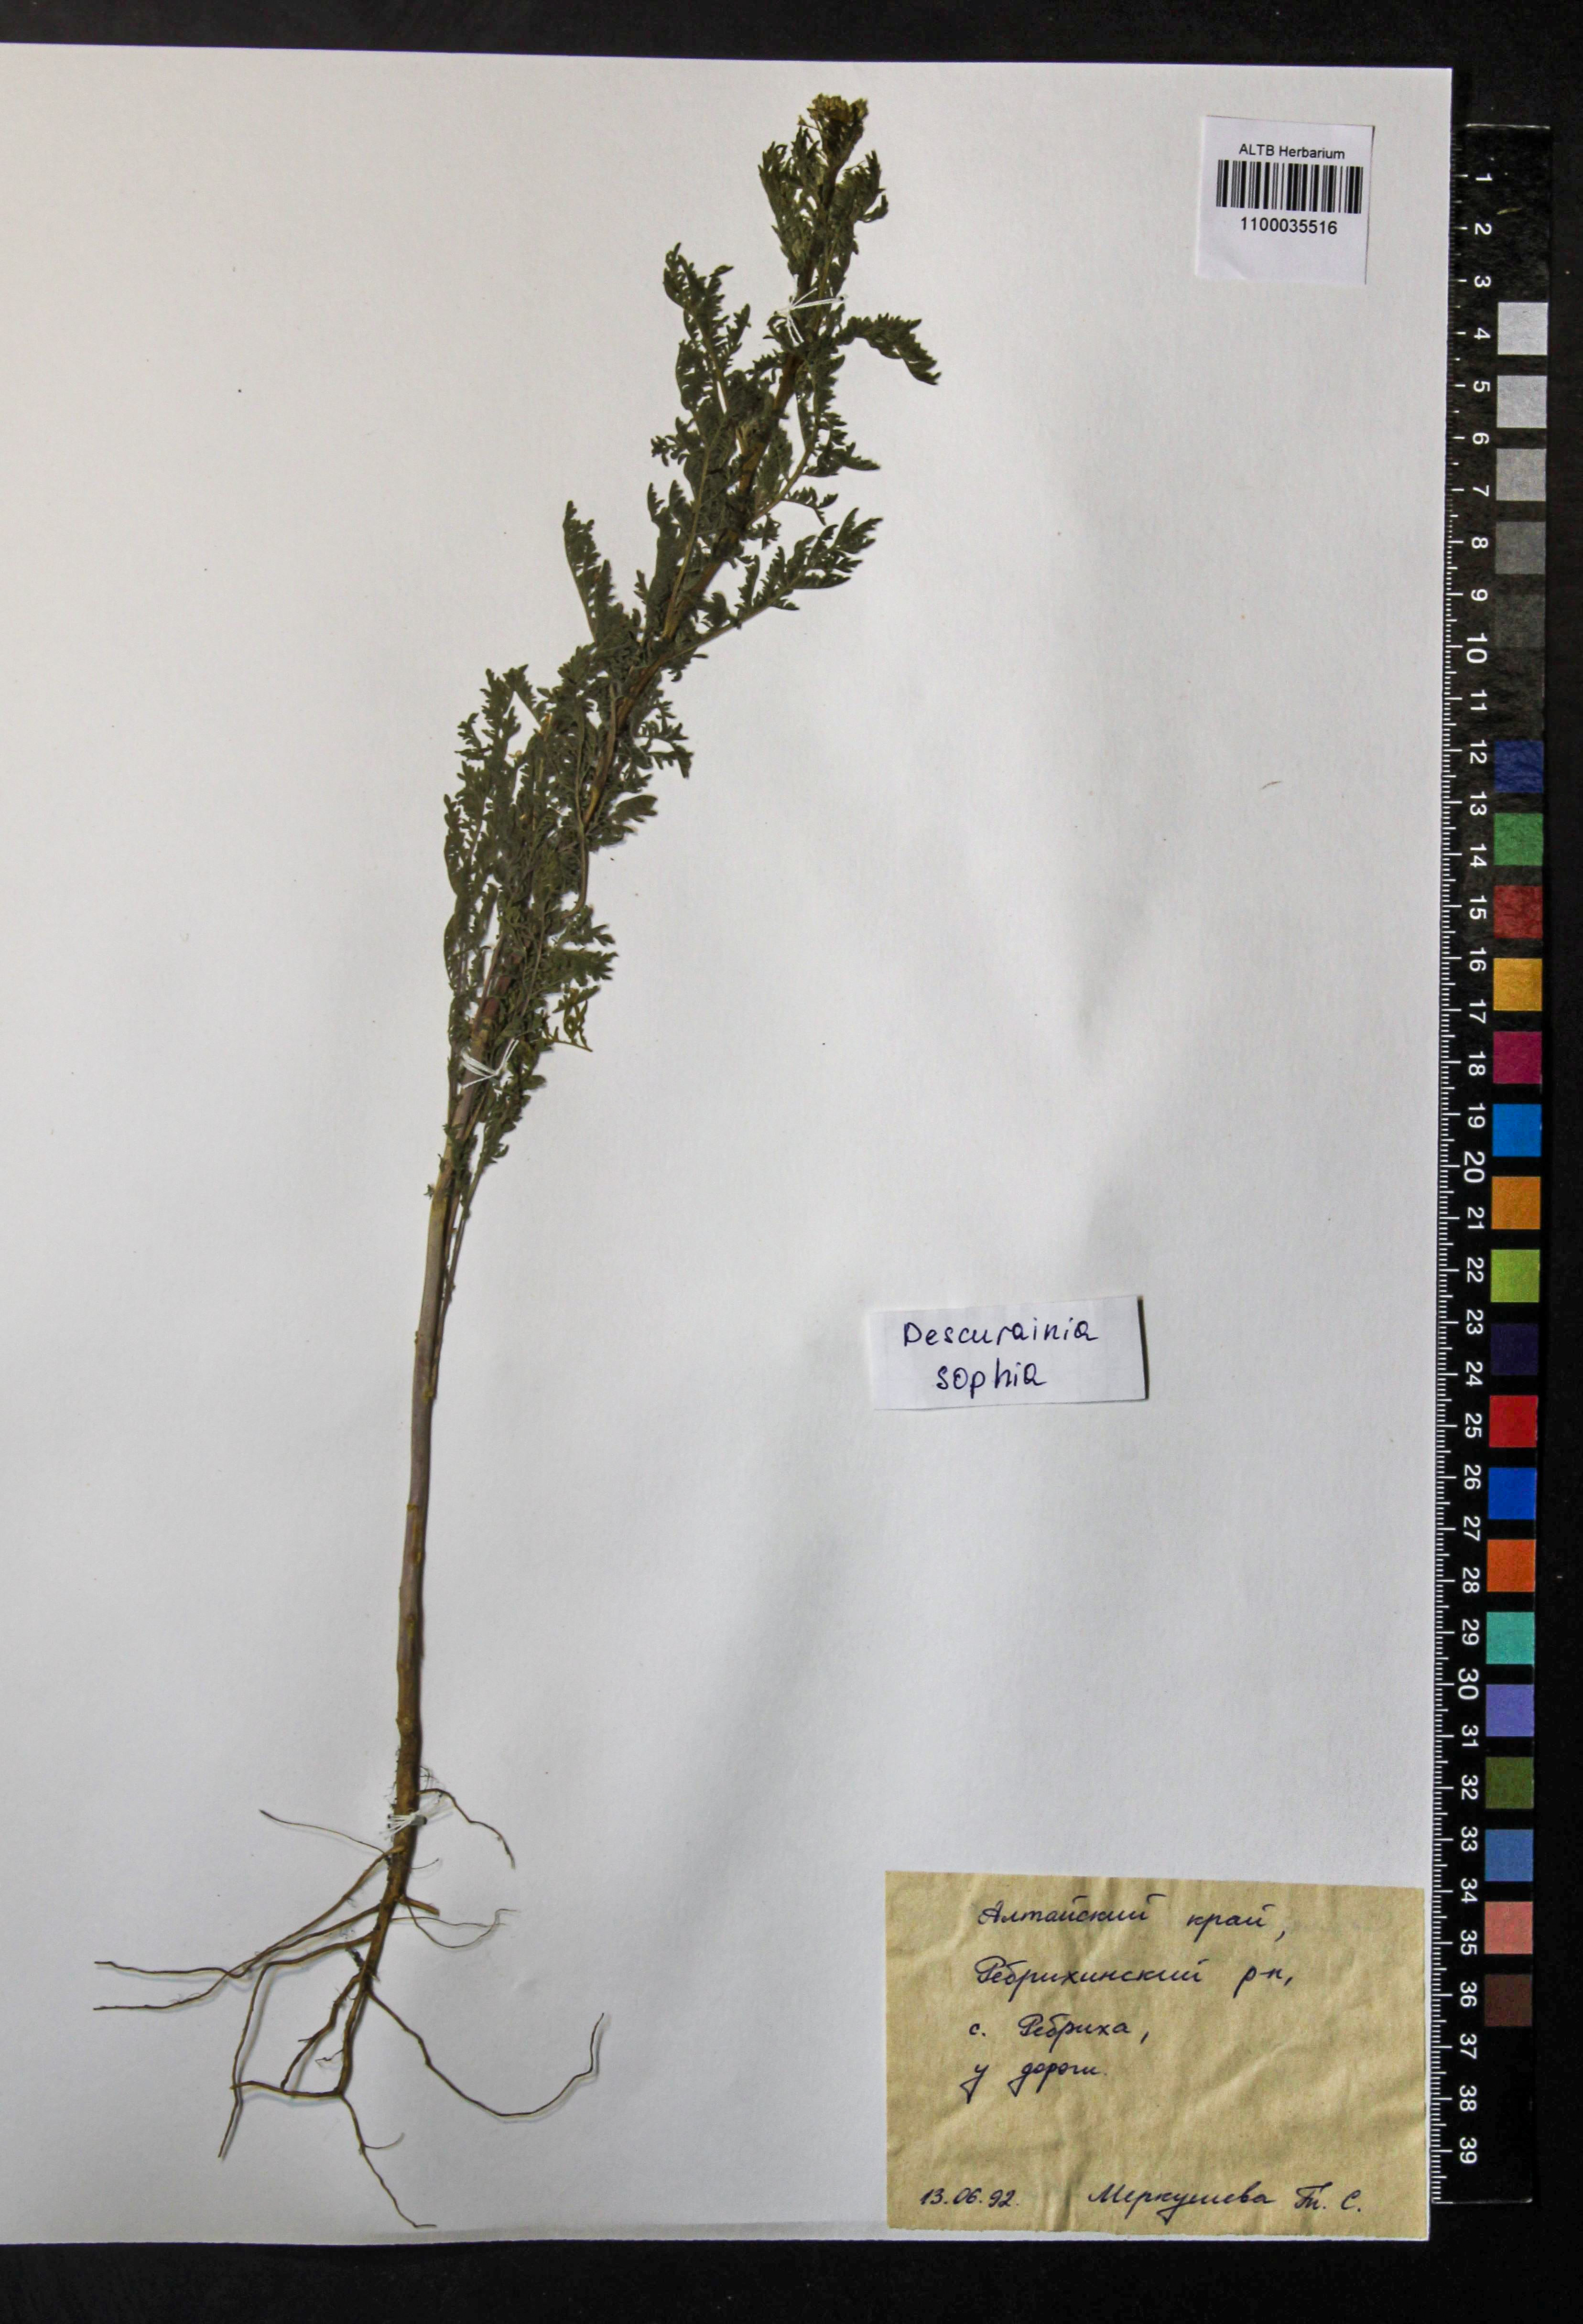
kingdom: Plantae
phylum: Tracheophyta
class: Magnoliopsida
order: Brassicales
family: Brassicaceae
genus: Descurainia
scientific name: Descurainia sophia
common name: Flixweed
